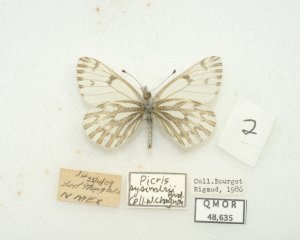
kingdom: Animalia
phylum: Arthropoda
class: Insecta
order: Lepidoptera
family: Pieridae
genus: Pontia
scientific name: Pontia sisymbrii
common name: Spring White
